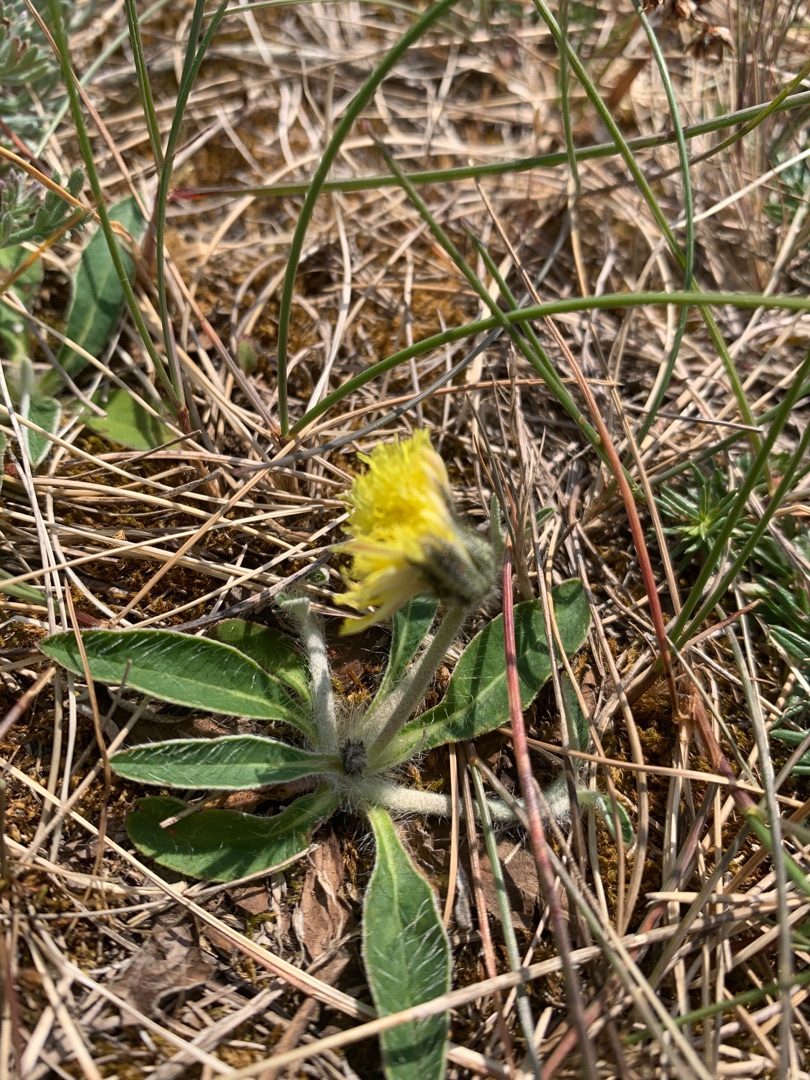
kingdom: Plantae
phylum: Tracheophyta
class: Magnoliopsida
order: Asterales
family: Asteraceae
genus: Pilosella
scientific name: Pilosella officinarum
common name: Håret høgeurt
